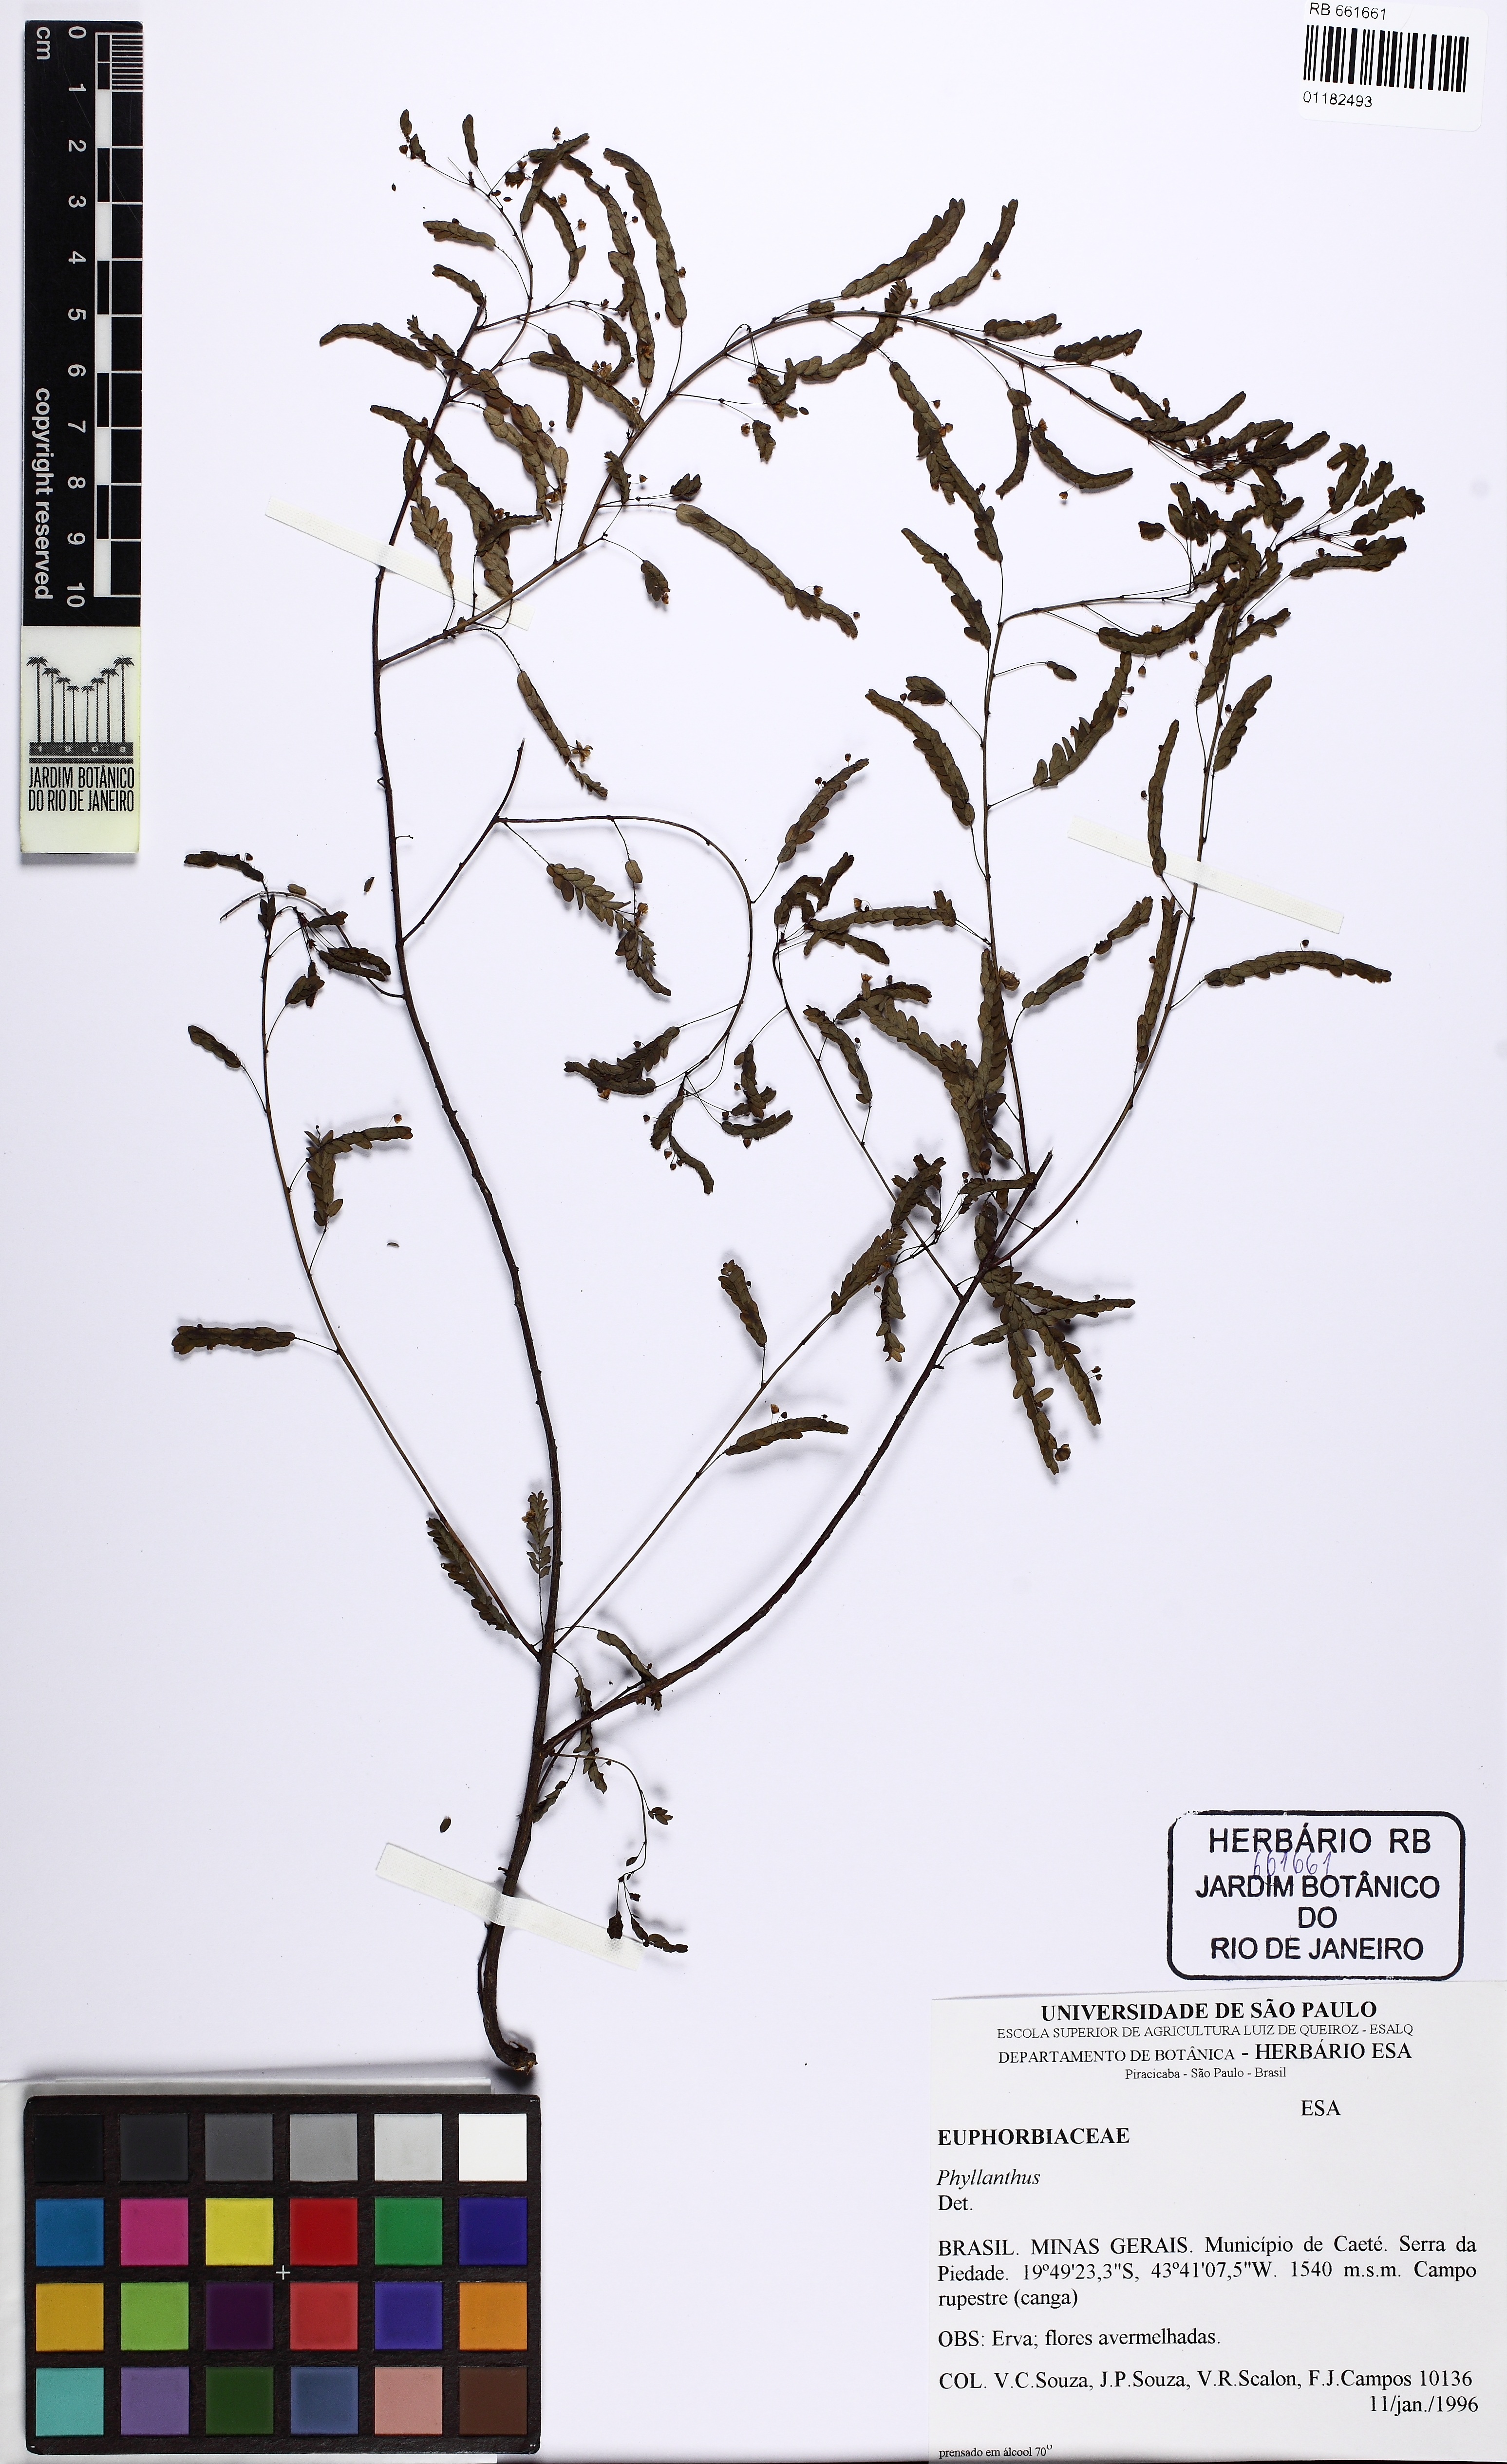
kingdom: Plantae
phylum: Tracheophyta
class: Magnoliopsida
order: Malpighiales
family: Phyllanthaceae
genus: Phyllanthus
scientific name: Phyllanthus niruri
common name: Niruri
